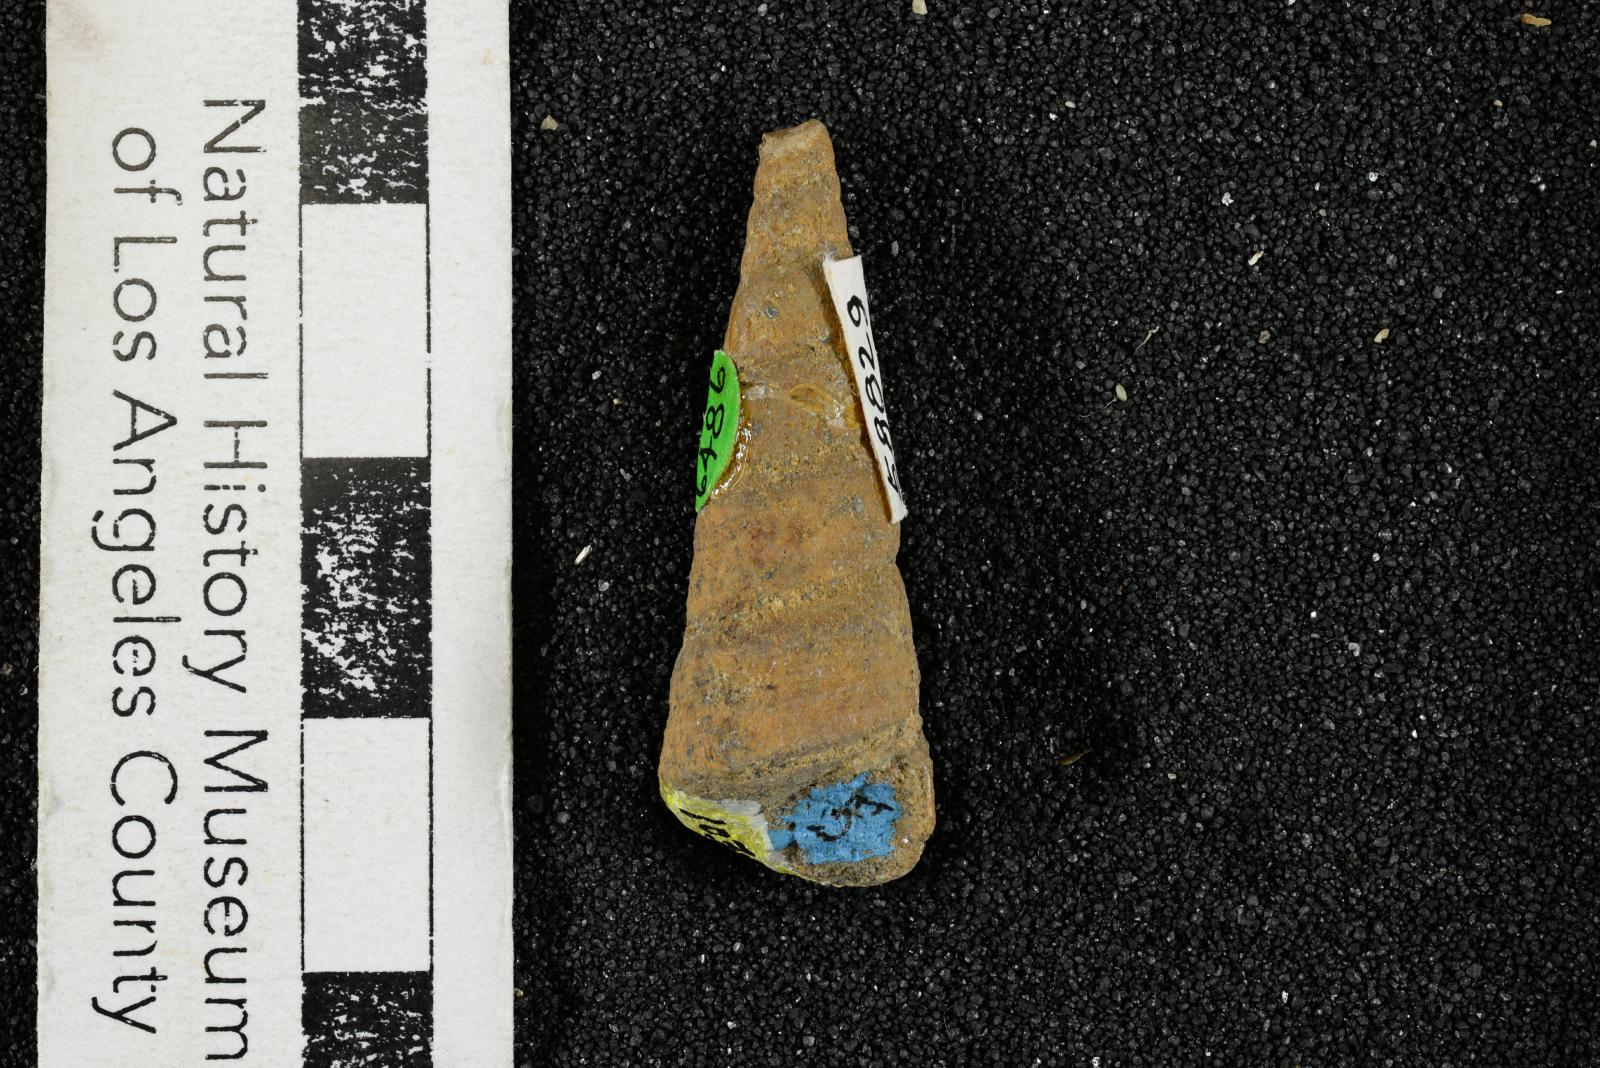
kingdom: Animalia
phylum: Mollusca
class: Gastropoda
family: Turritellidae
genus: Turritella
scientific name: Turritella chaneyi
